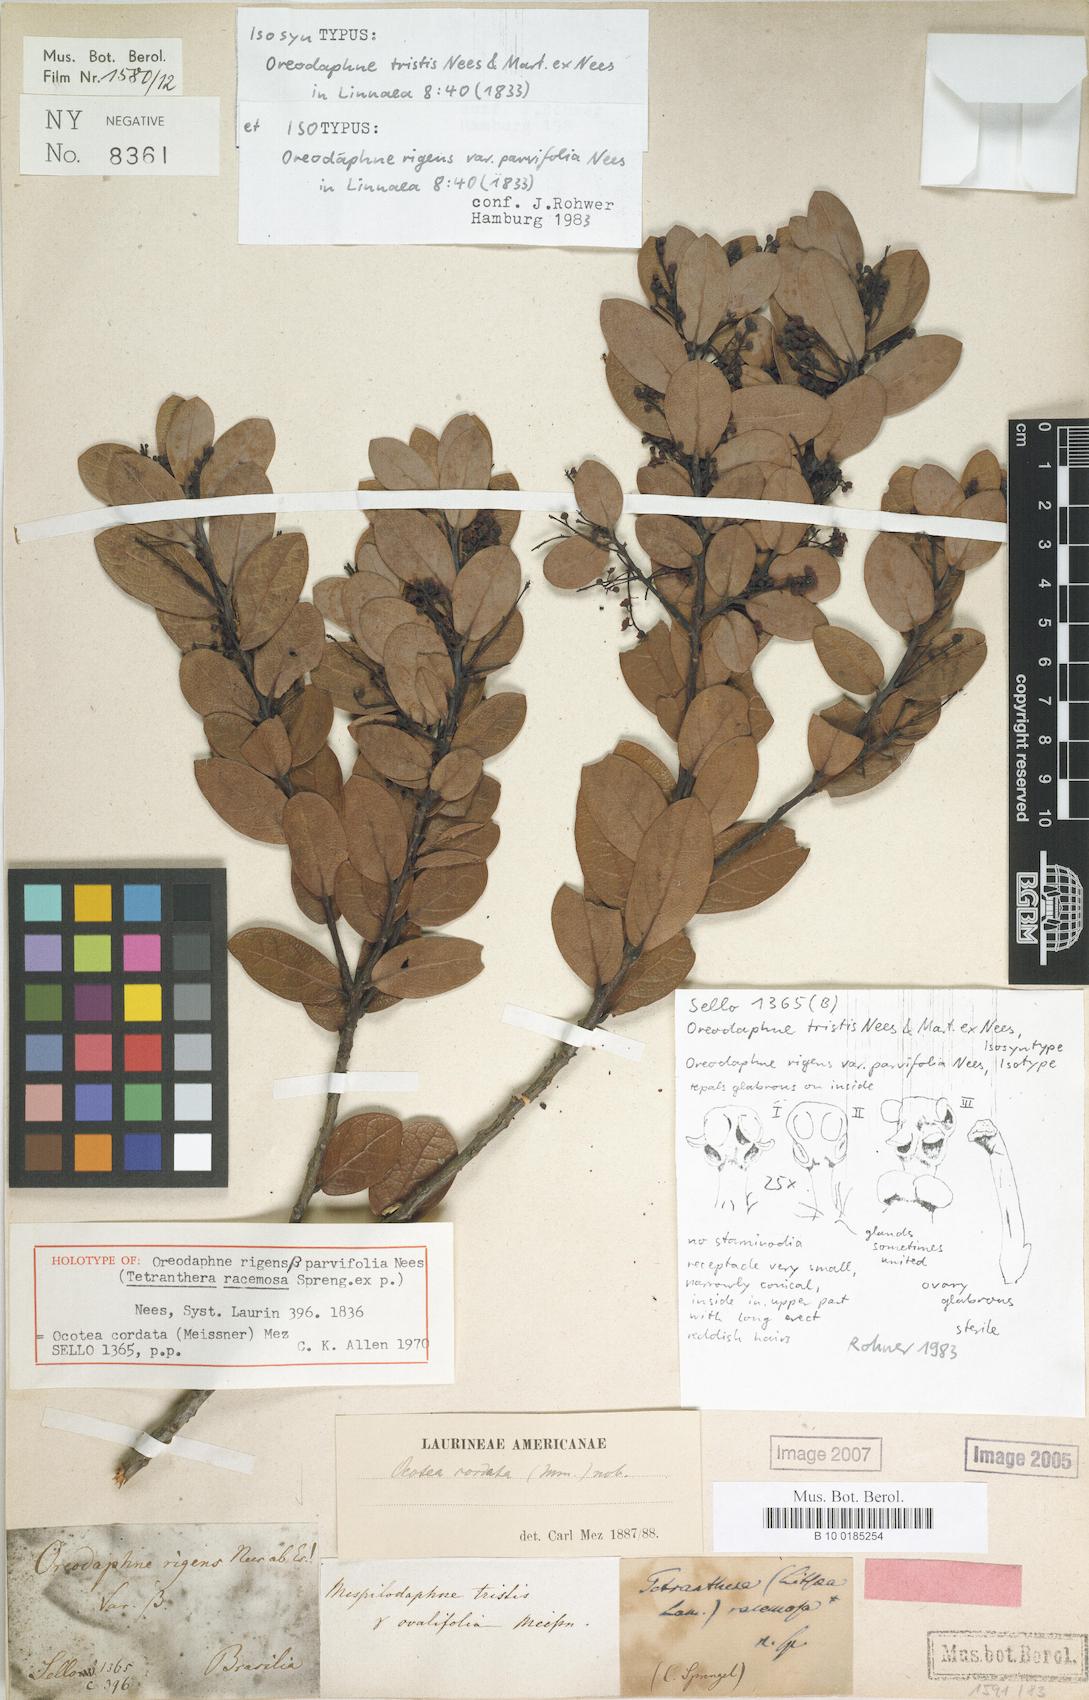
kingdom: Plantae
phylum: Tracheophyta
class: Magnoliopsida
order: Laurales
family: Lauraceae
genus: Mespilodaphne
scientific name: Mespilodaphne tristis
